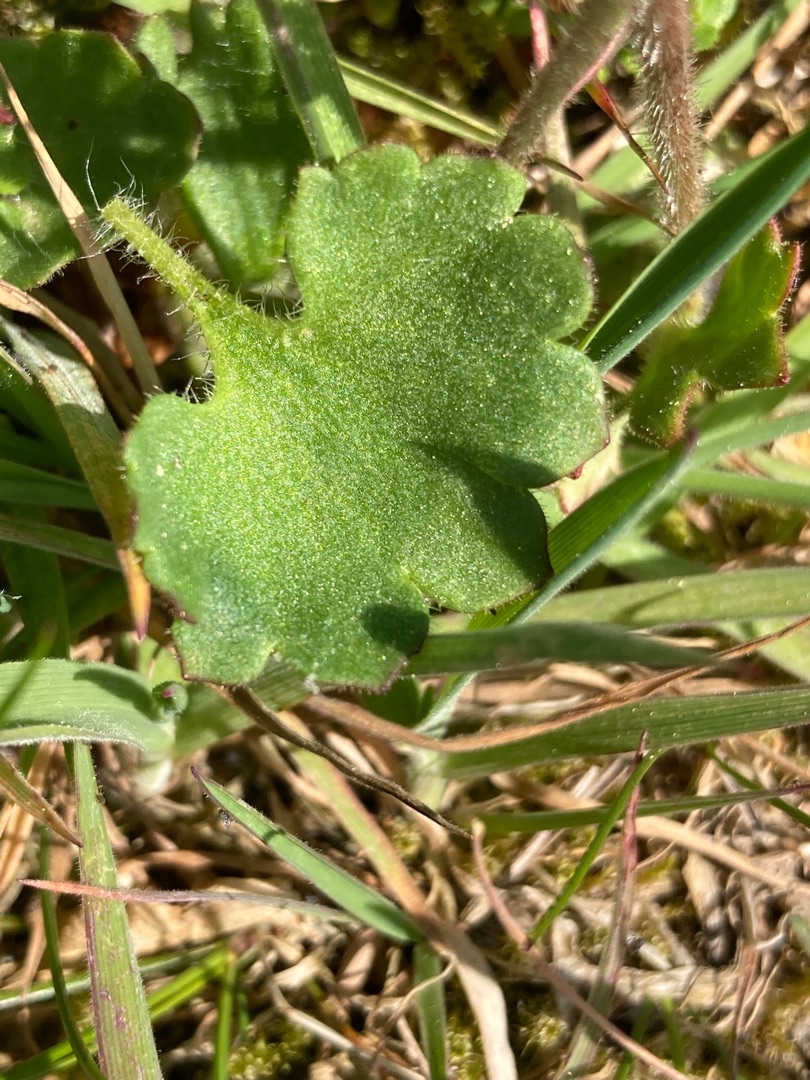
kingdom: Plantae
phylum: Tracheophyta
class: Magnoliopsida
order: Saxifragales
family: Saxifragaceae
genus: Saxifraga
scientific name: Saxifraga granulata
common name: Kornet stenbræk
